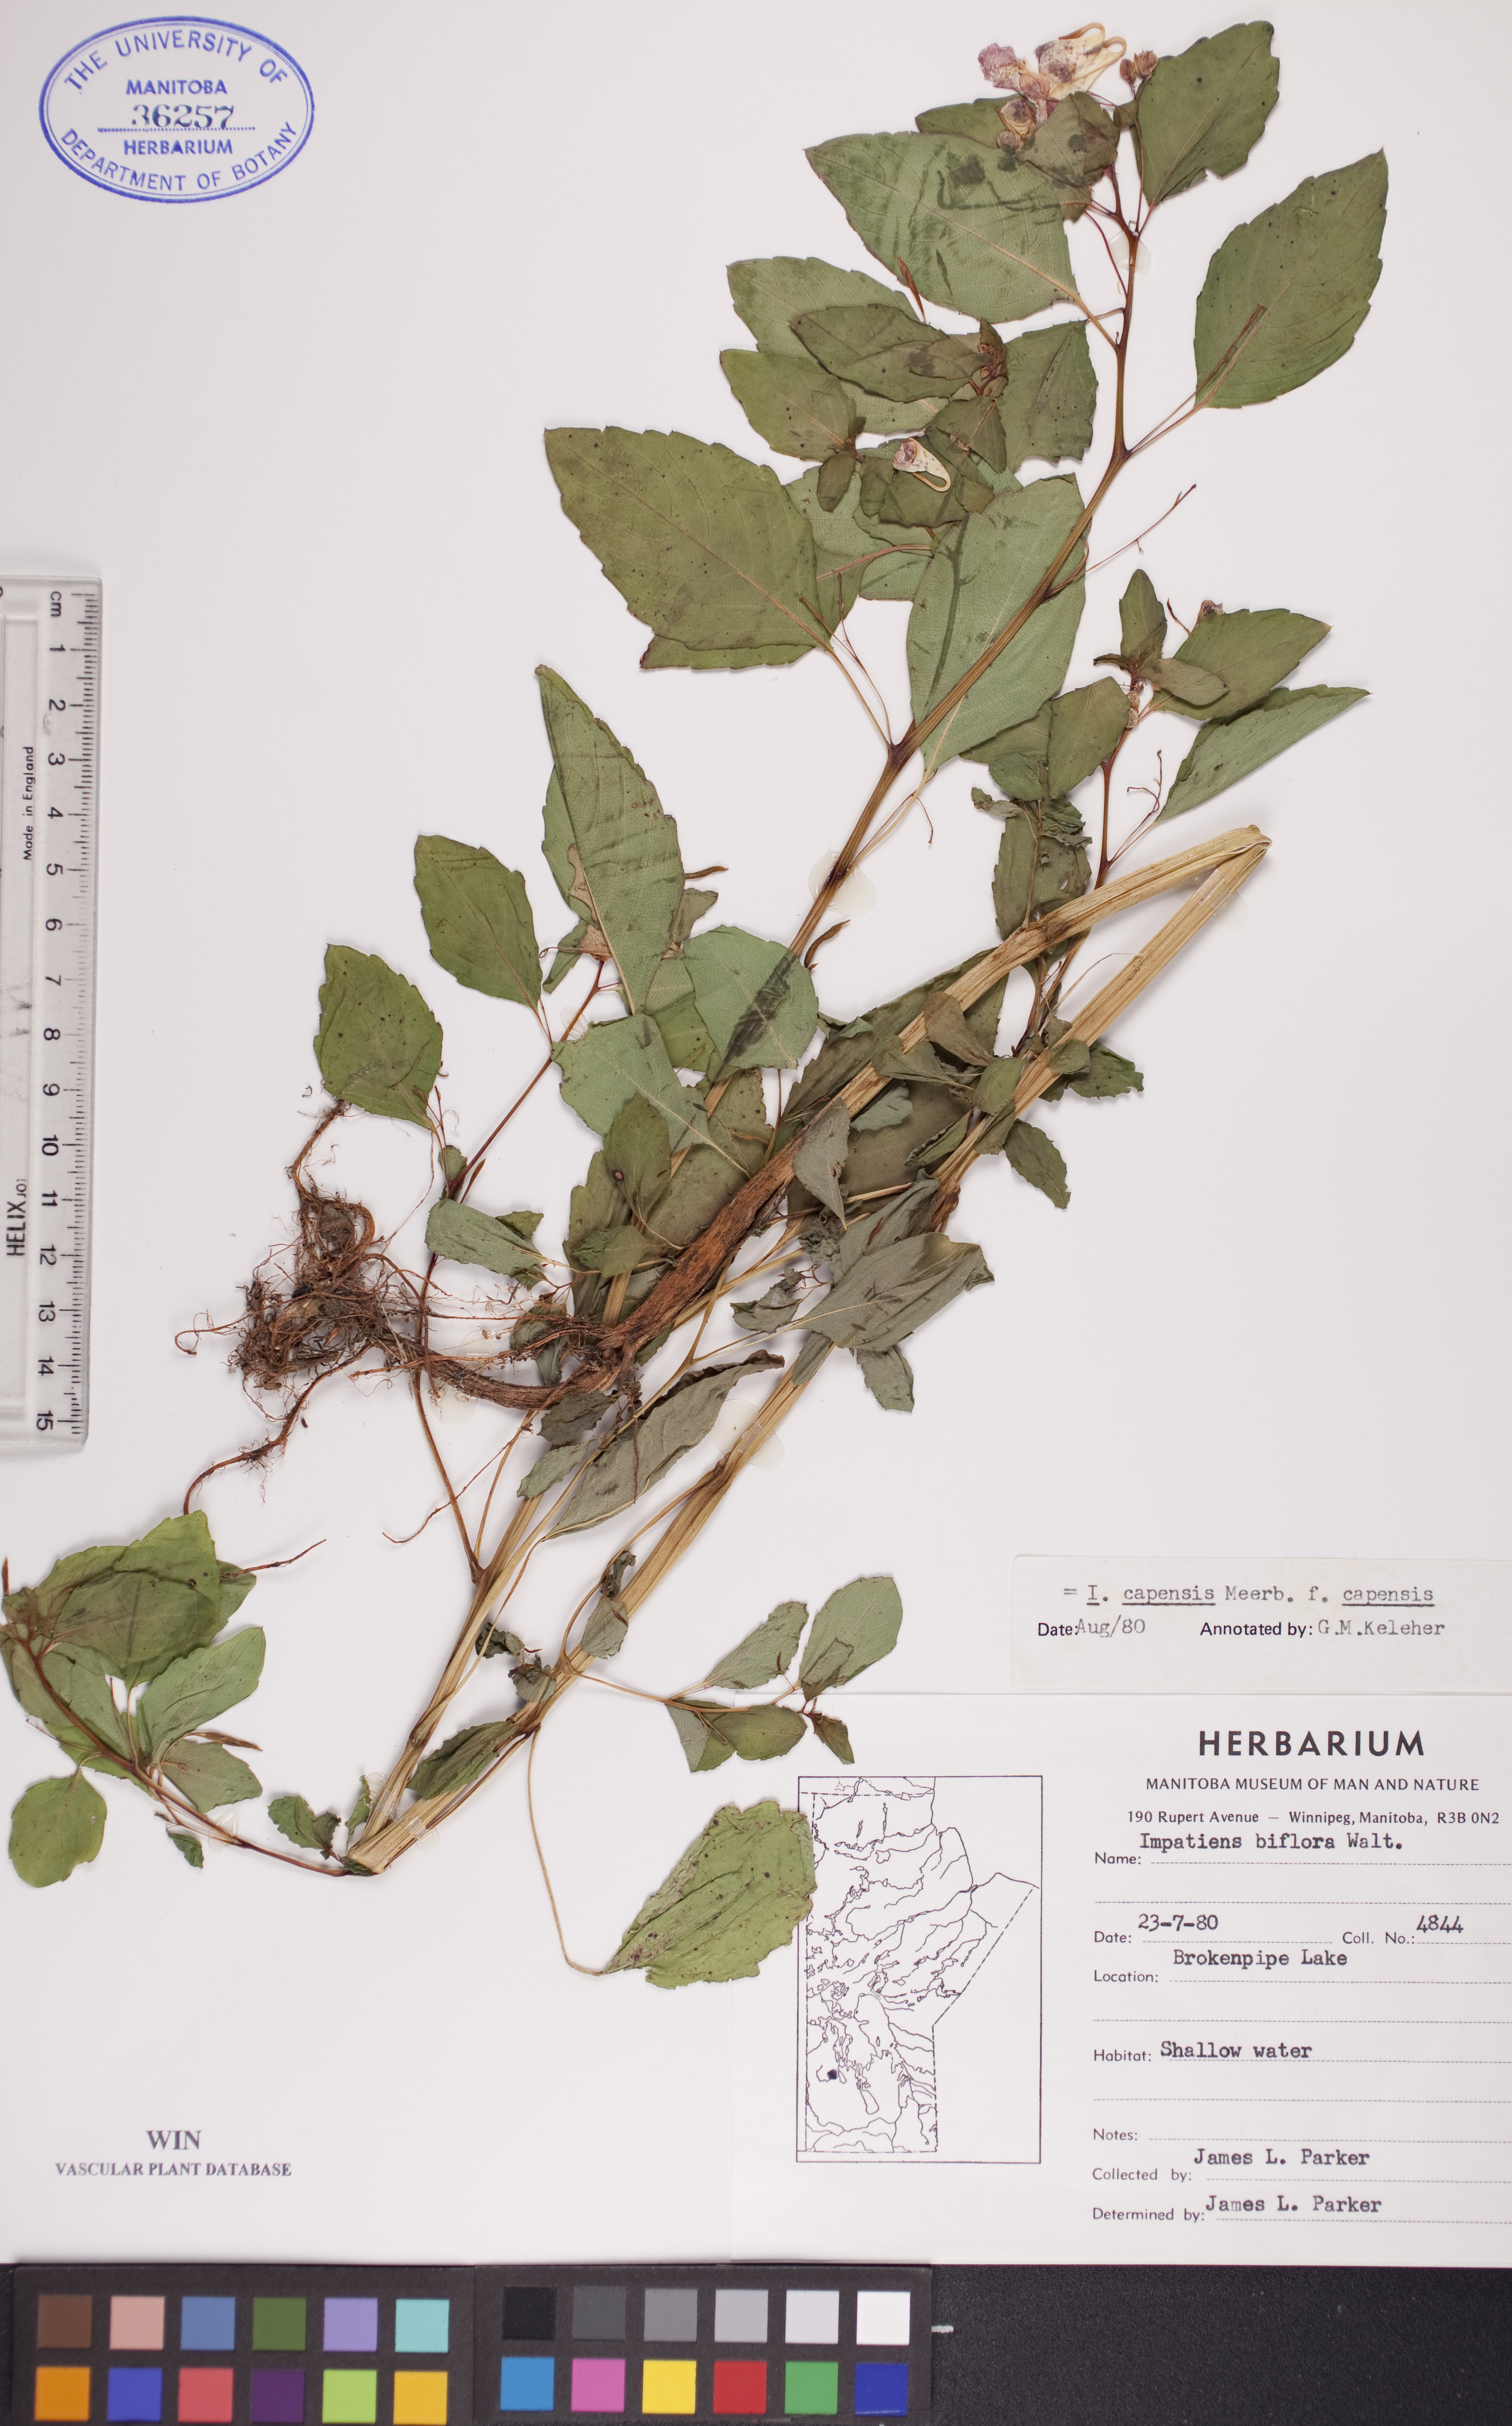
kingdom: Plantae
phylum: Tracheophyta
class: Magnoliopsida
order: Ericales
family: Balsaminaceae
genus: Impatiens
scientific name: Impatiens capensis
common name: Orange balsam
